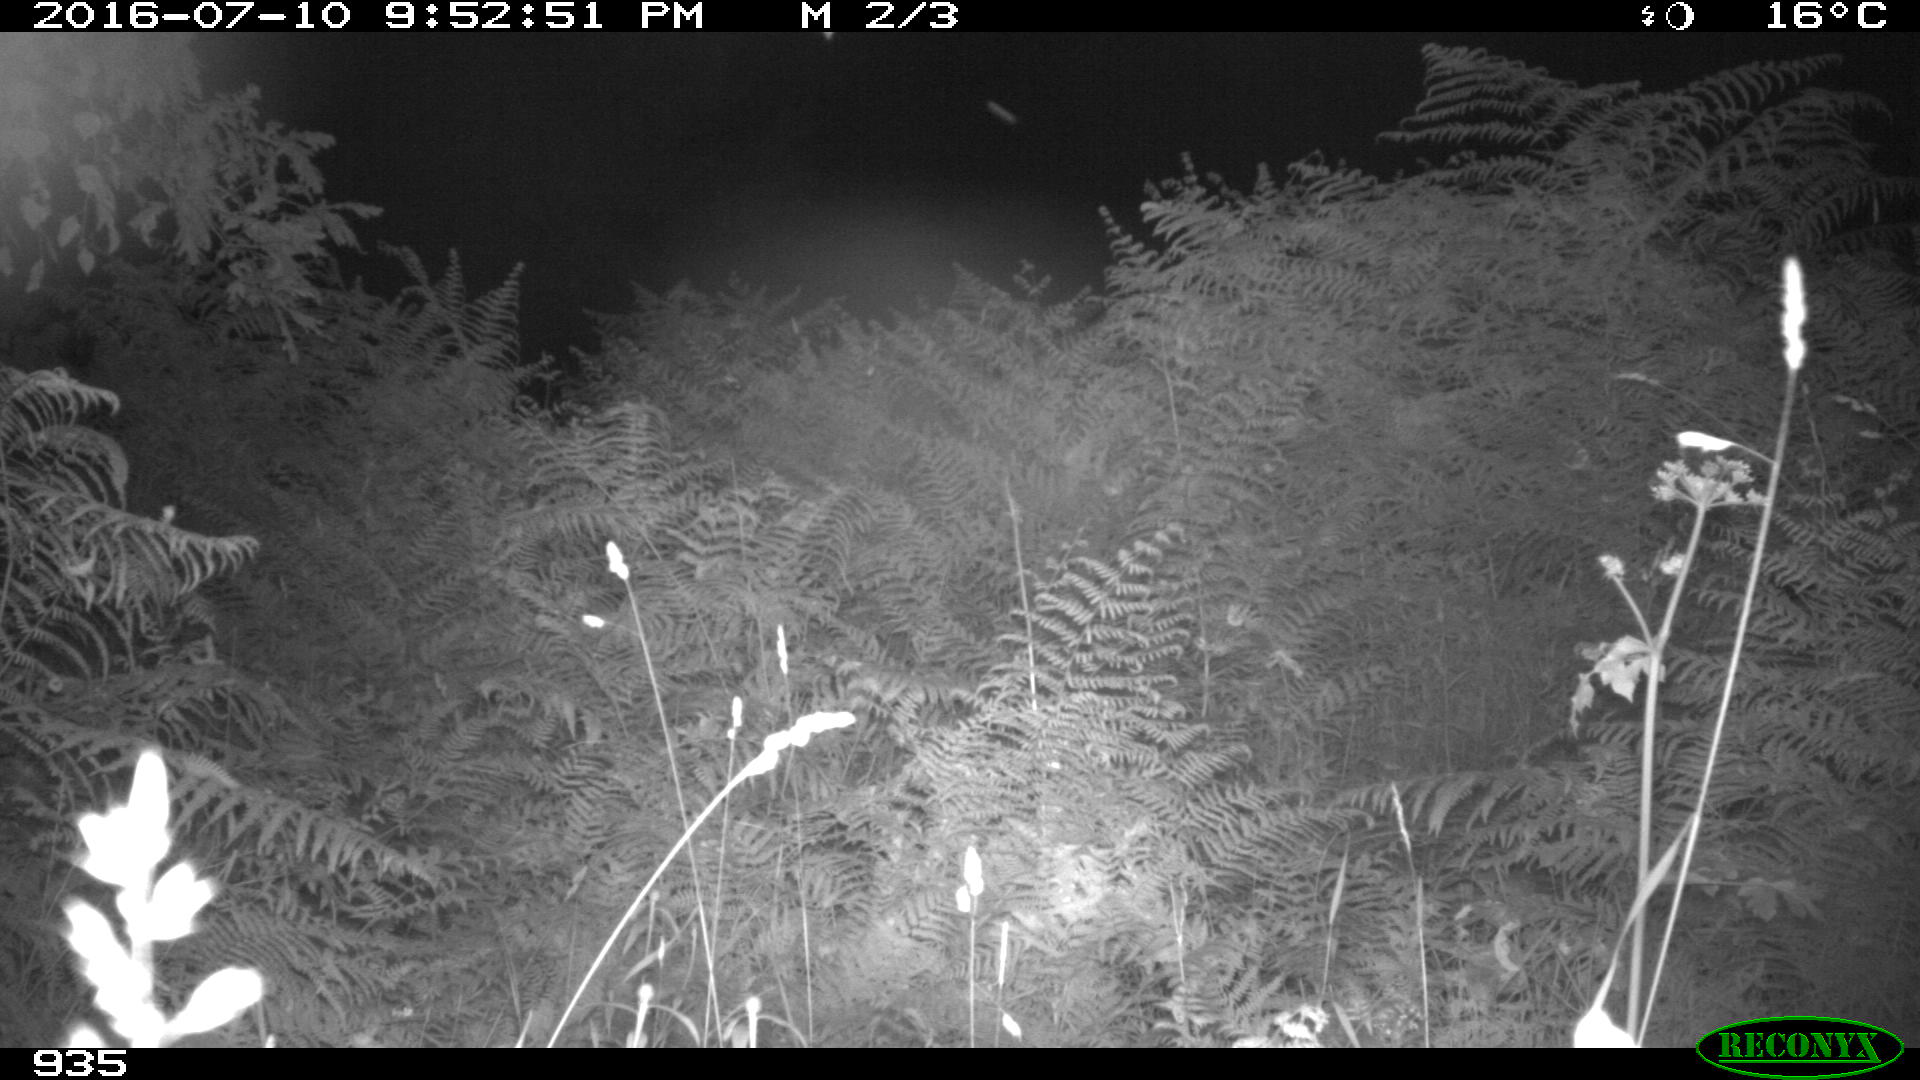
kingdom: Animalia
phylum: Chordata
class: Mammalia
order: Artiodactyla
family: Bovidae
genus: Bos
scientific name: Bos taurus
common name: Domesticated cattle
